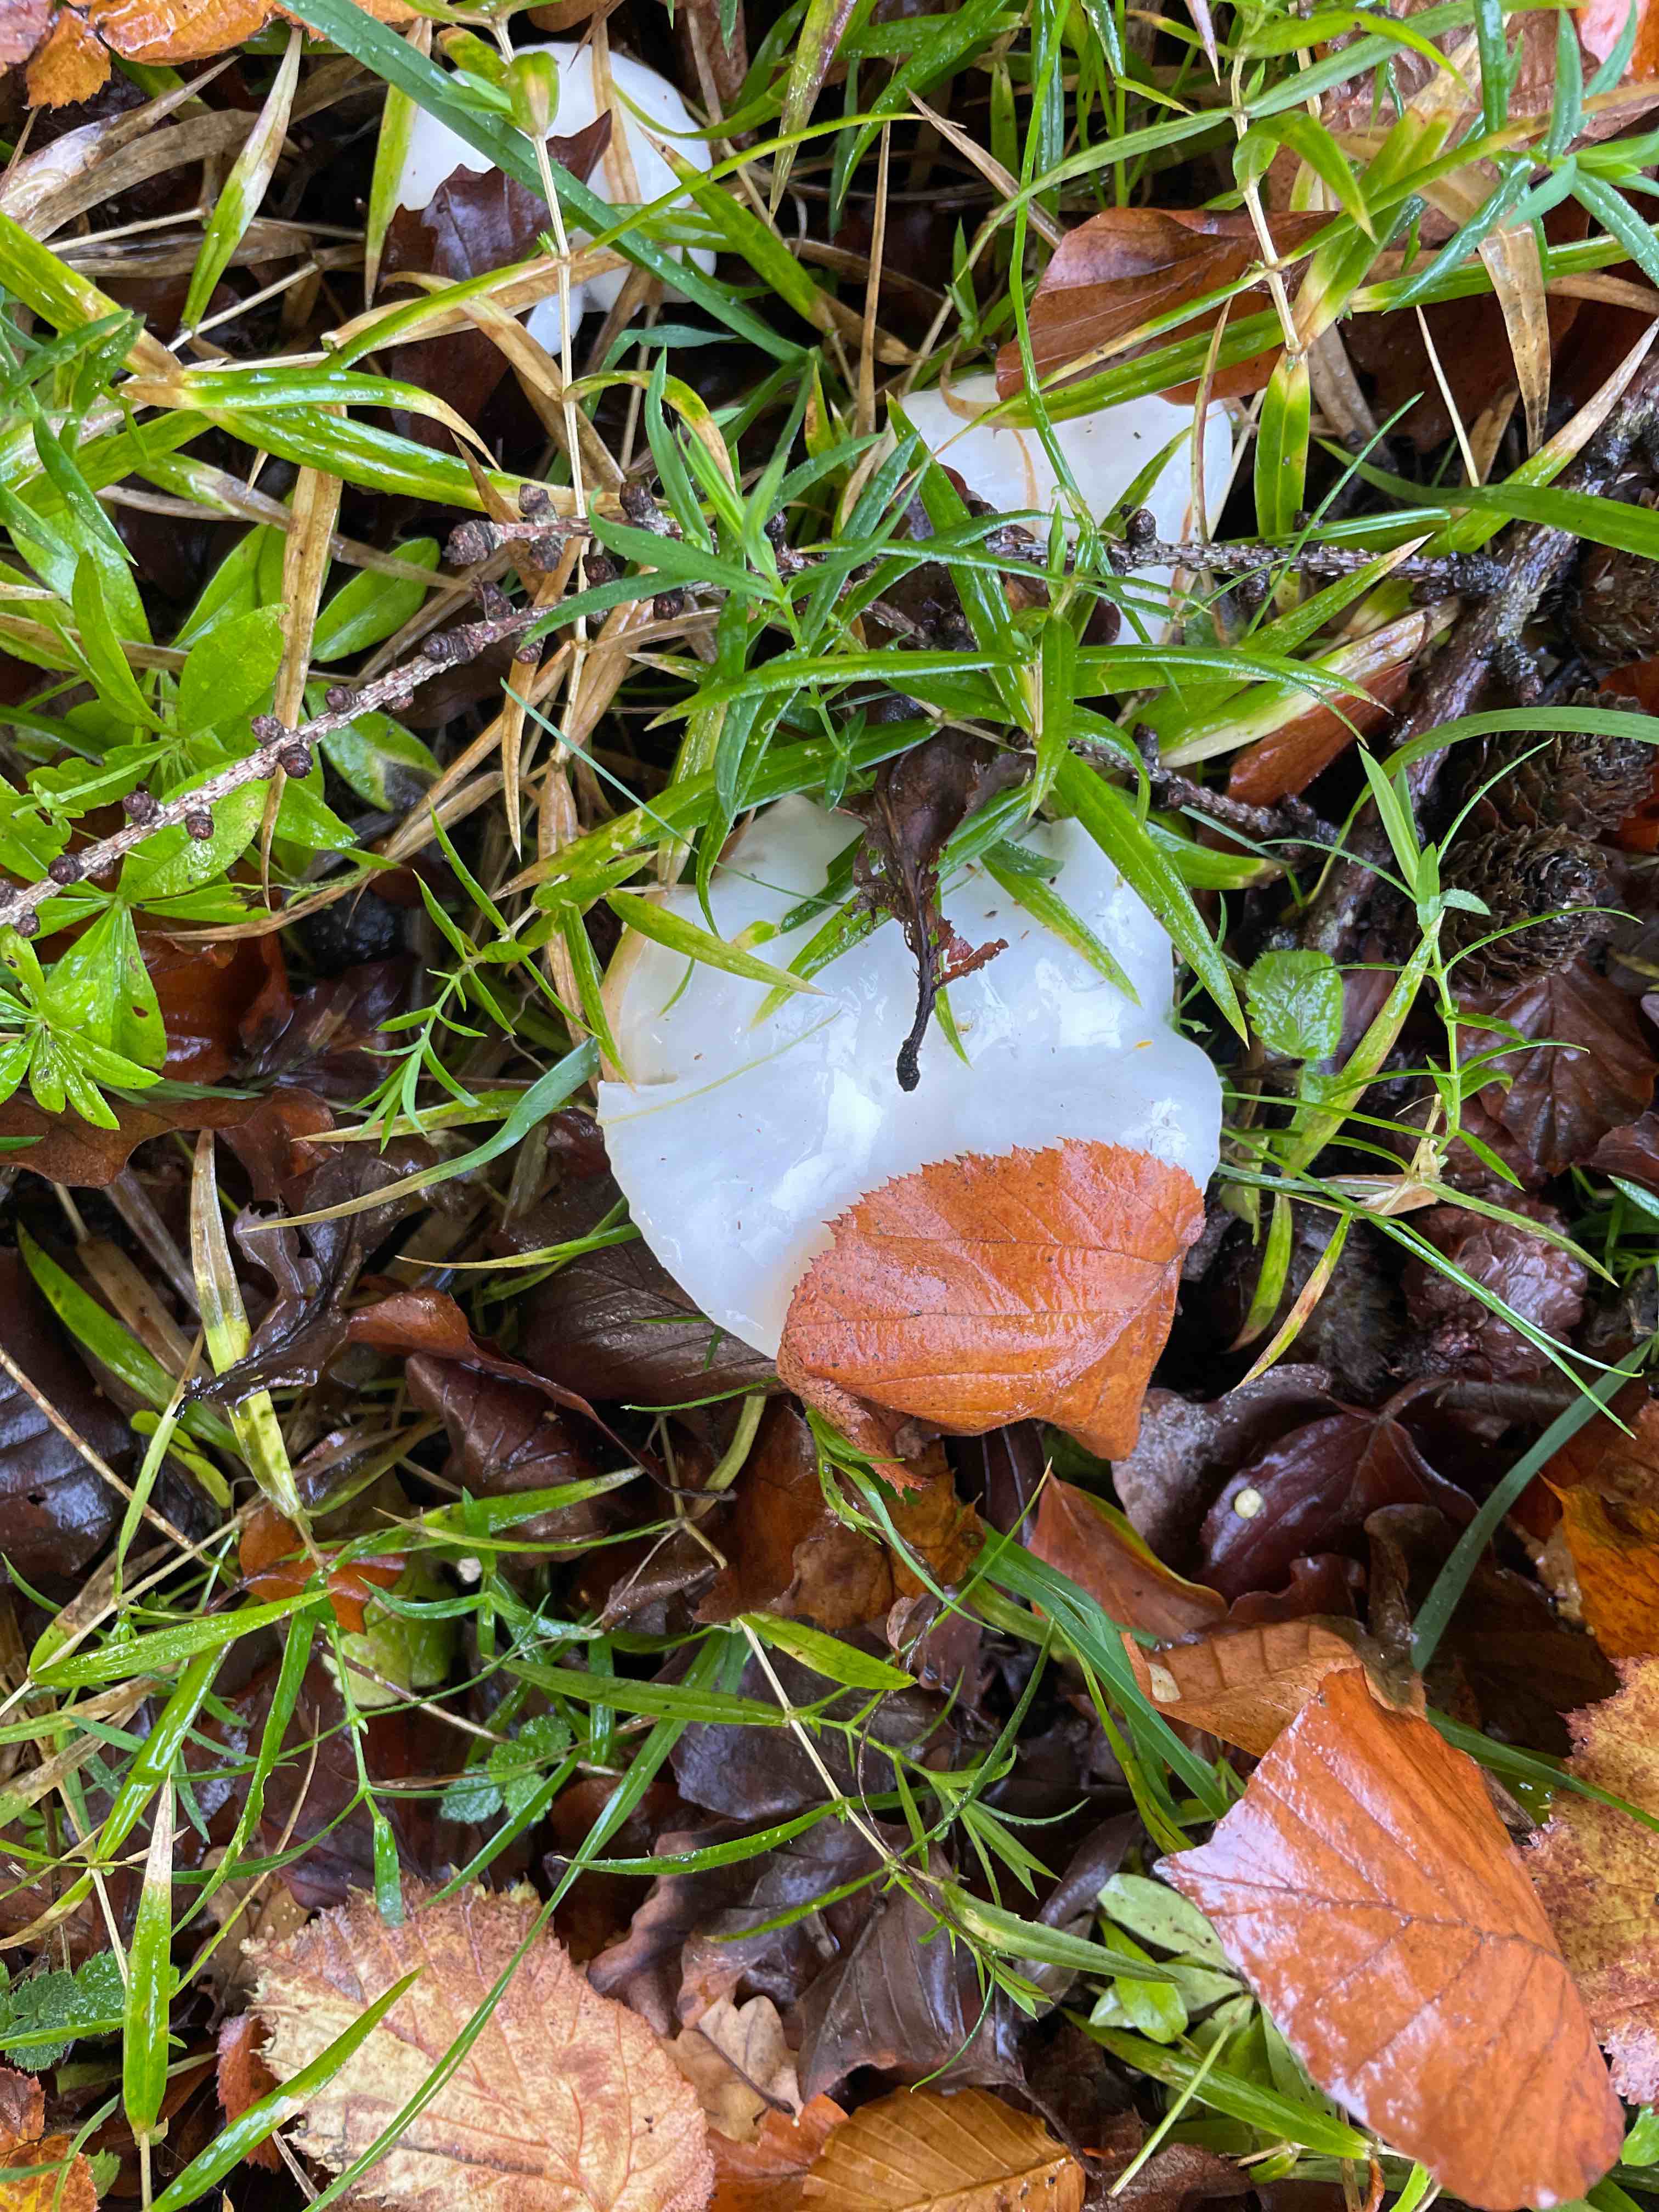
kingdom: Fungi
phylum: Basidiomycota
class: Agaricomycetes
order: Agaricales
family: Hygrophoraceae
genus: Hygrophorus
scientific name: Hygrophorus
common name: sneglehat
